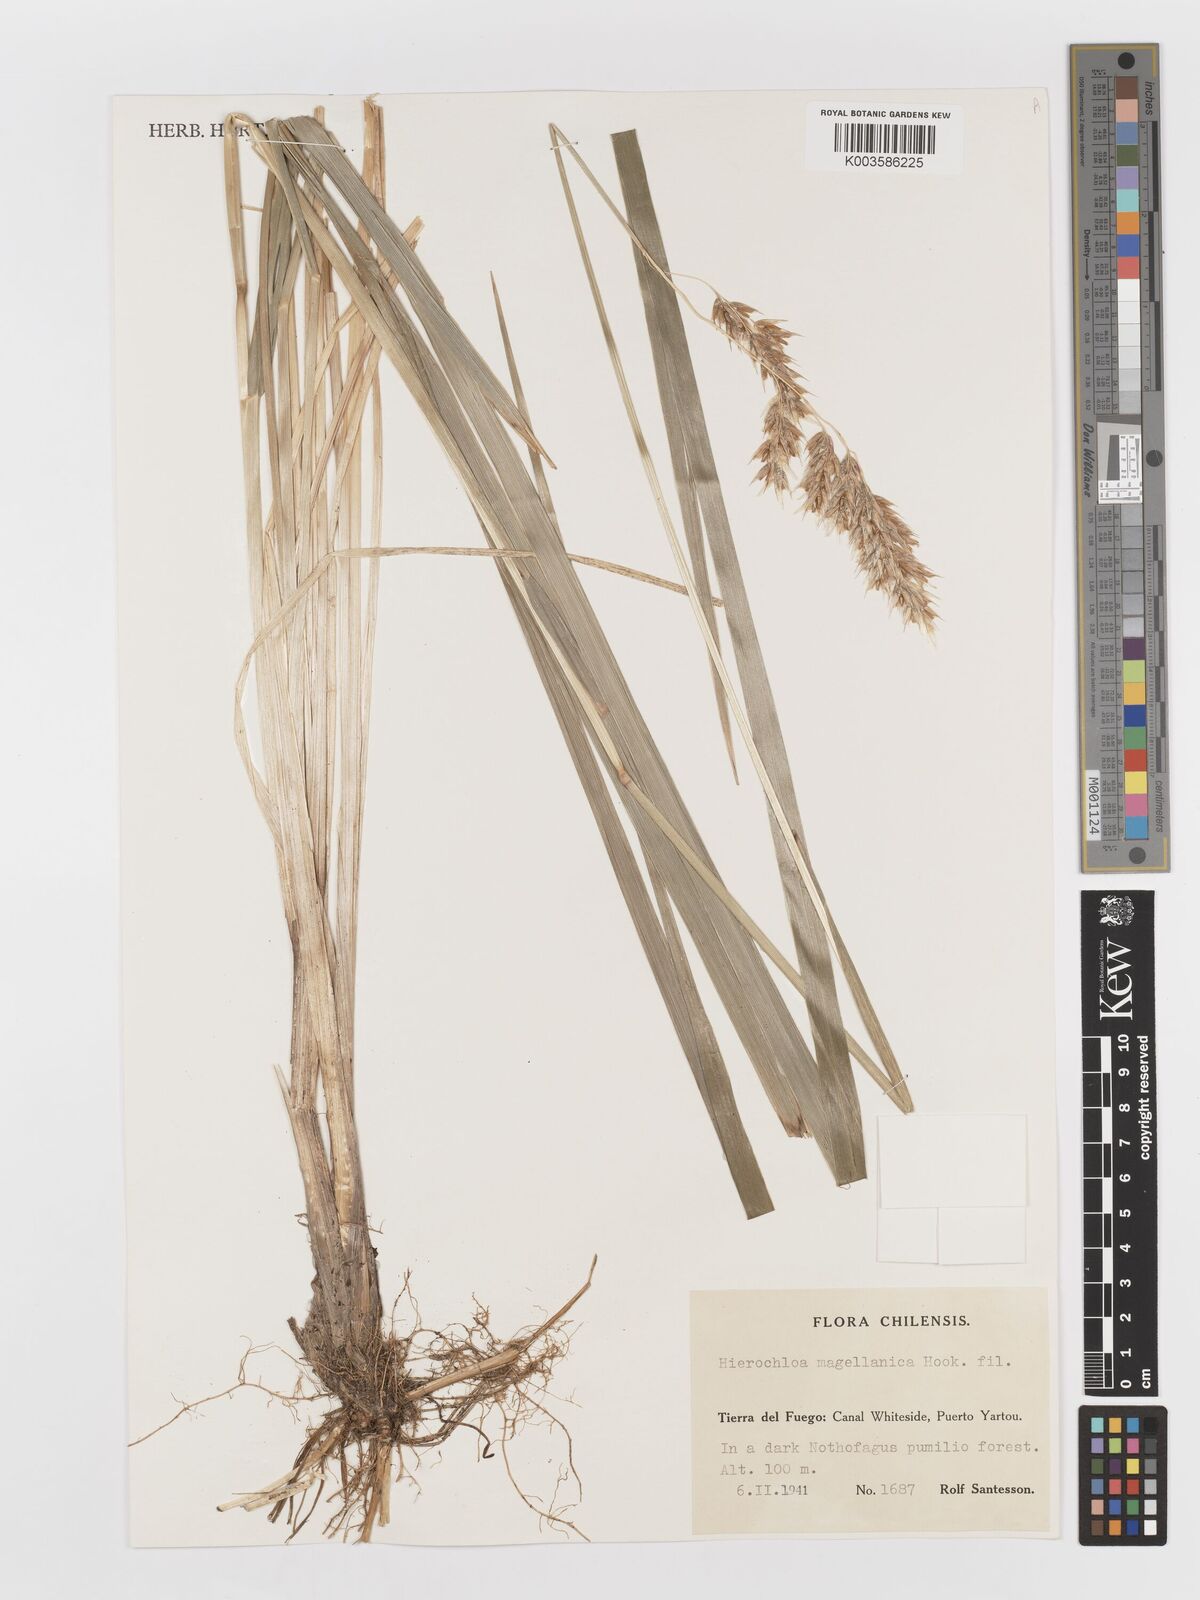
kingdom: Plantae
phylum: Tracheophyta
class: Liliopsida
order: Poales
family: Poaceae
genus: Anthoxanthum
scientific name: Anthoxanthum redolens
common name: Sweet holy grass
